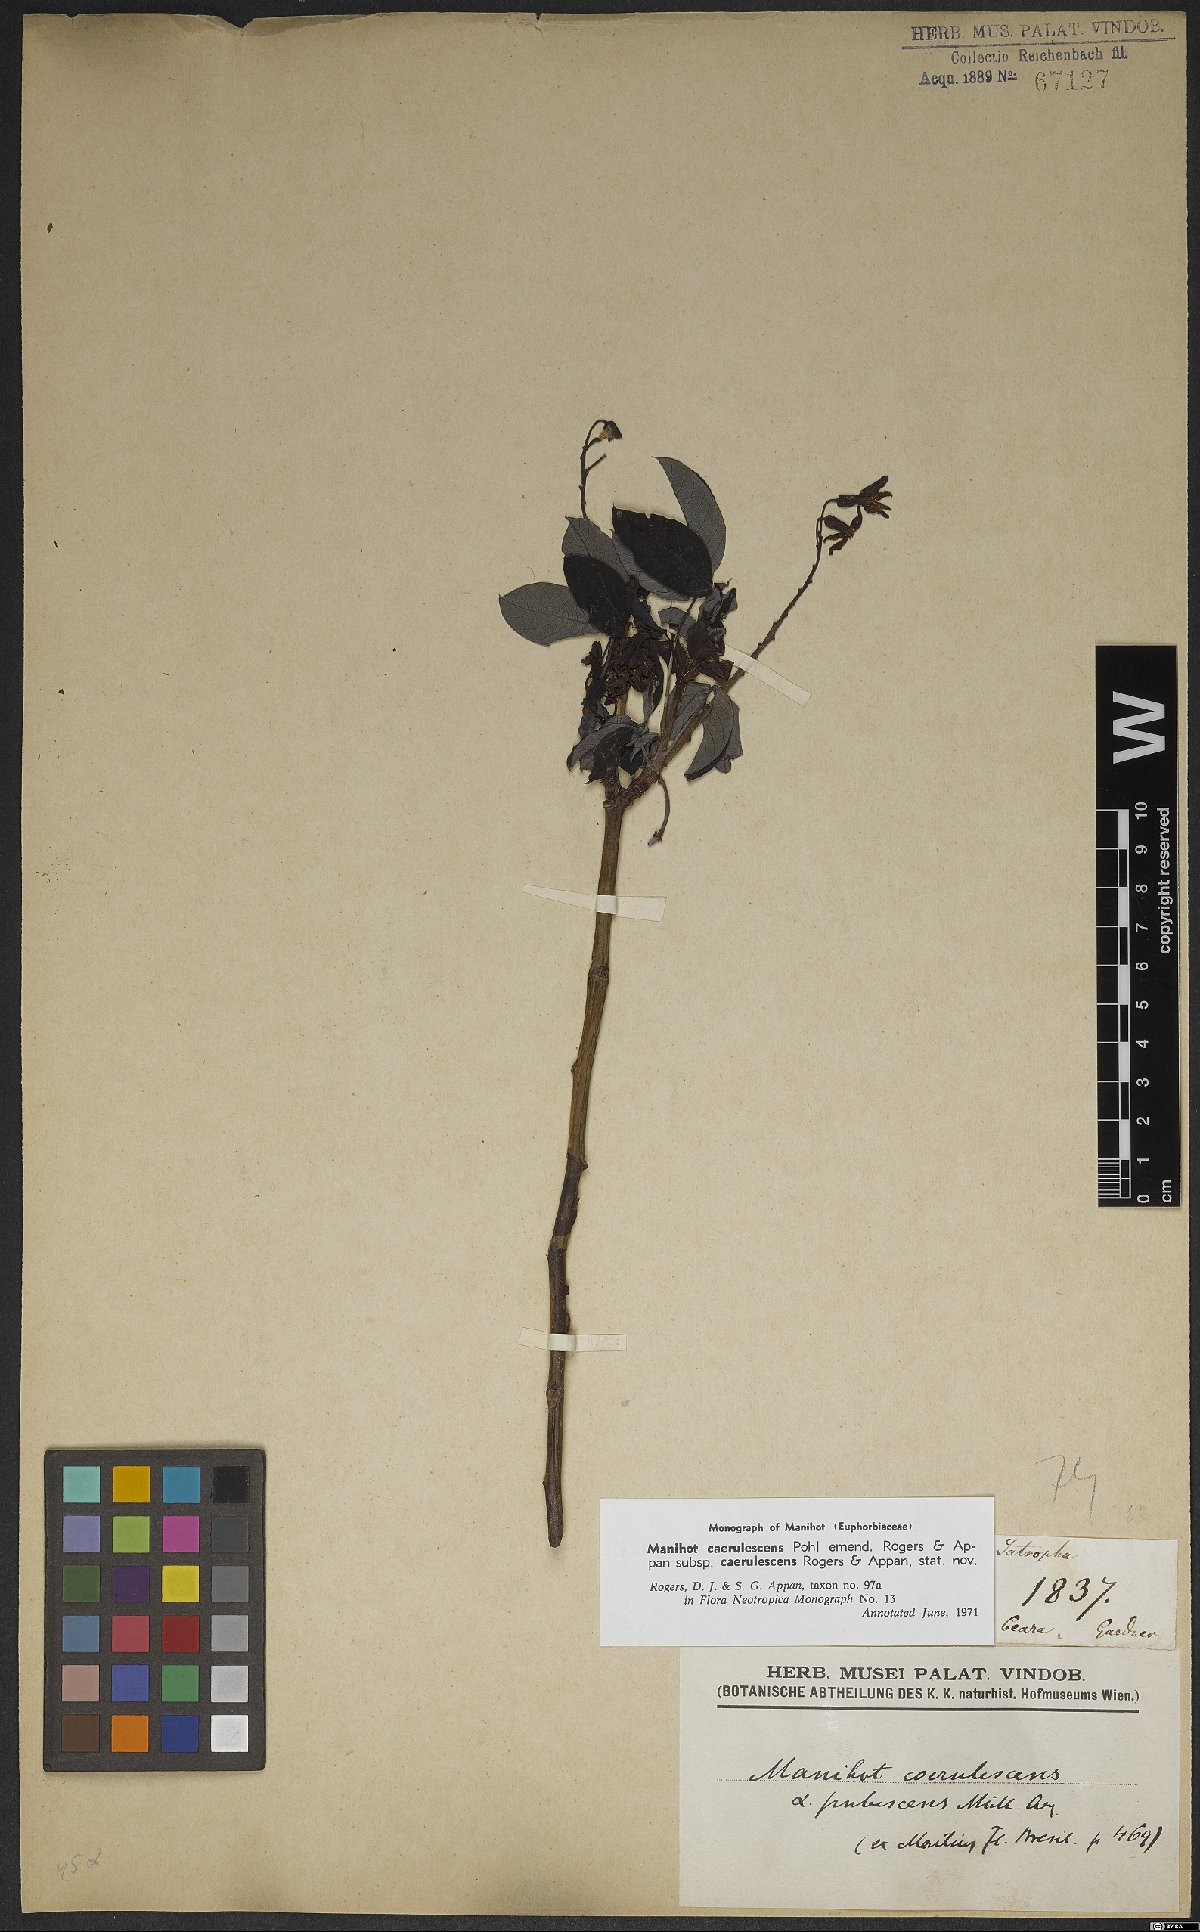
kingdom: Plantae
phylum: Tracheophyta
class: Magnoliopsida
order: Malpighiales
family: Euphorbiaceae
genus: Manihot
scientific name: Manihot caerulescens
